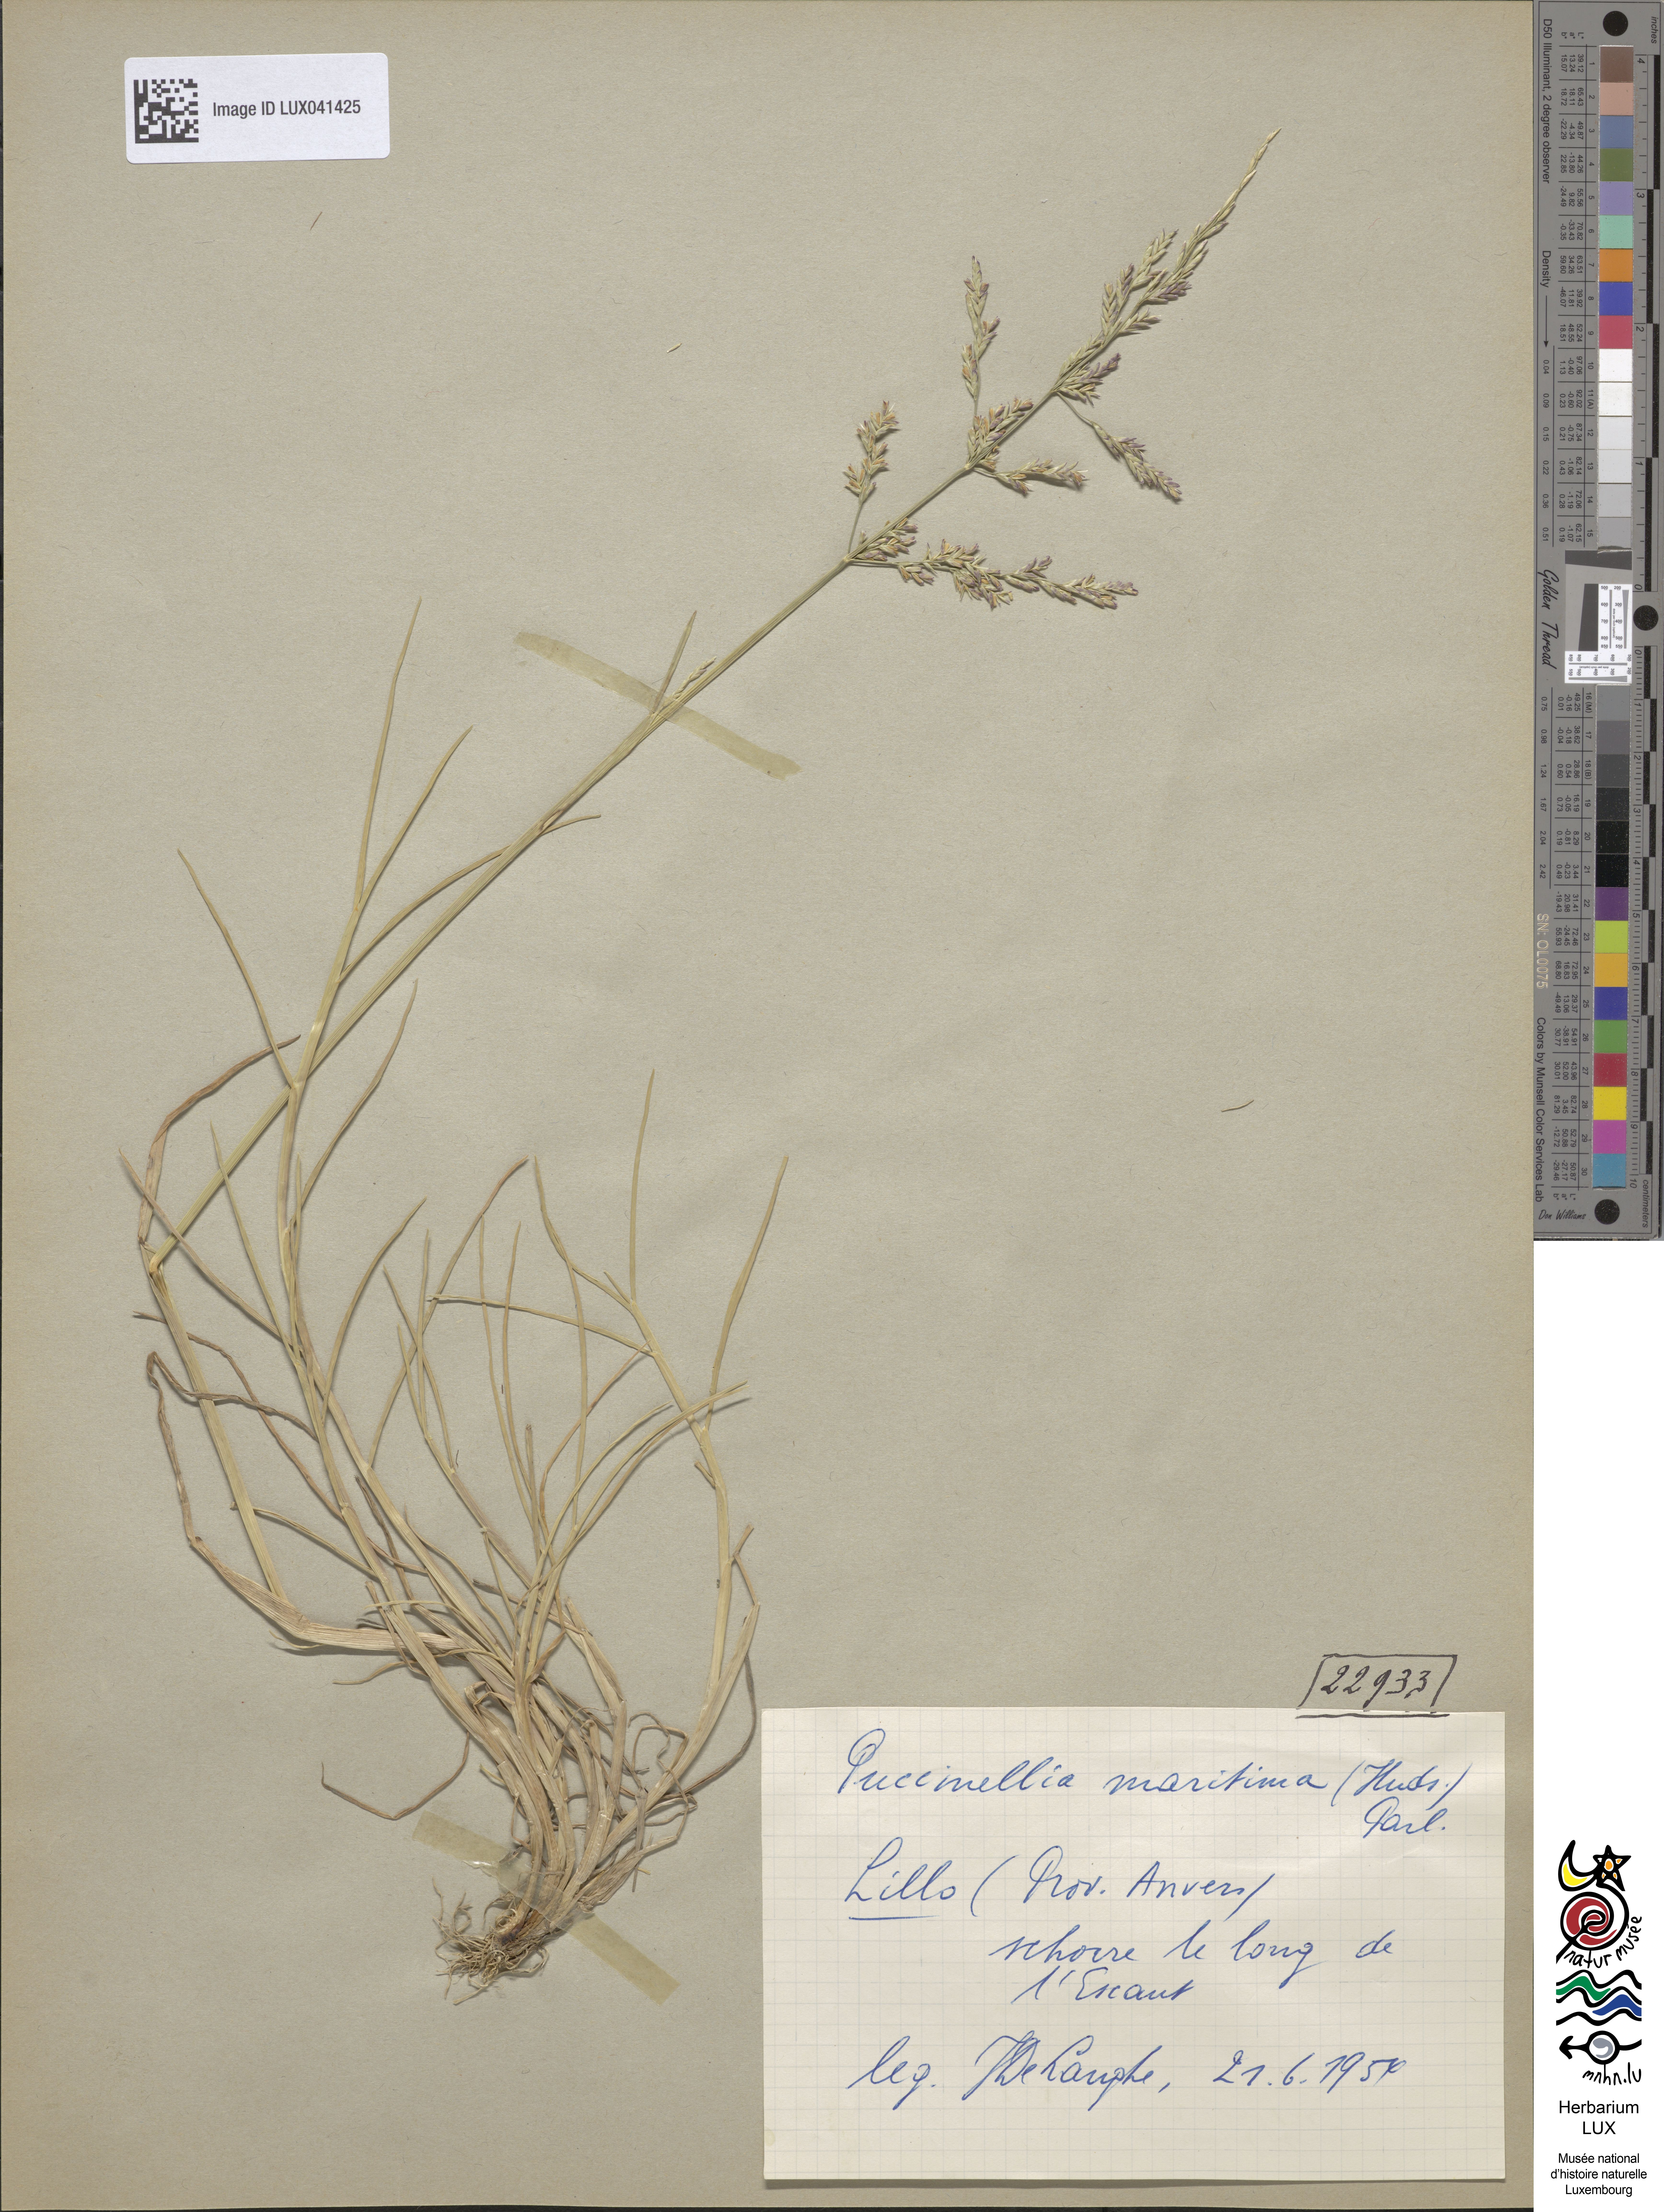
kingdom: Plantae
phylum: Tracheophyta
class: Liliopsida
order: Poales
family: Poaceae
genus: Puccinellia
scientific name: Puccinellia maritima
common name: Common saltmarsh grass
